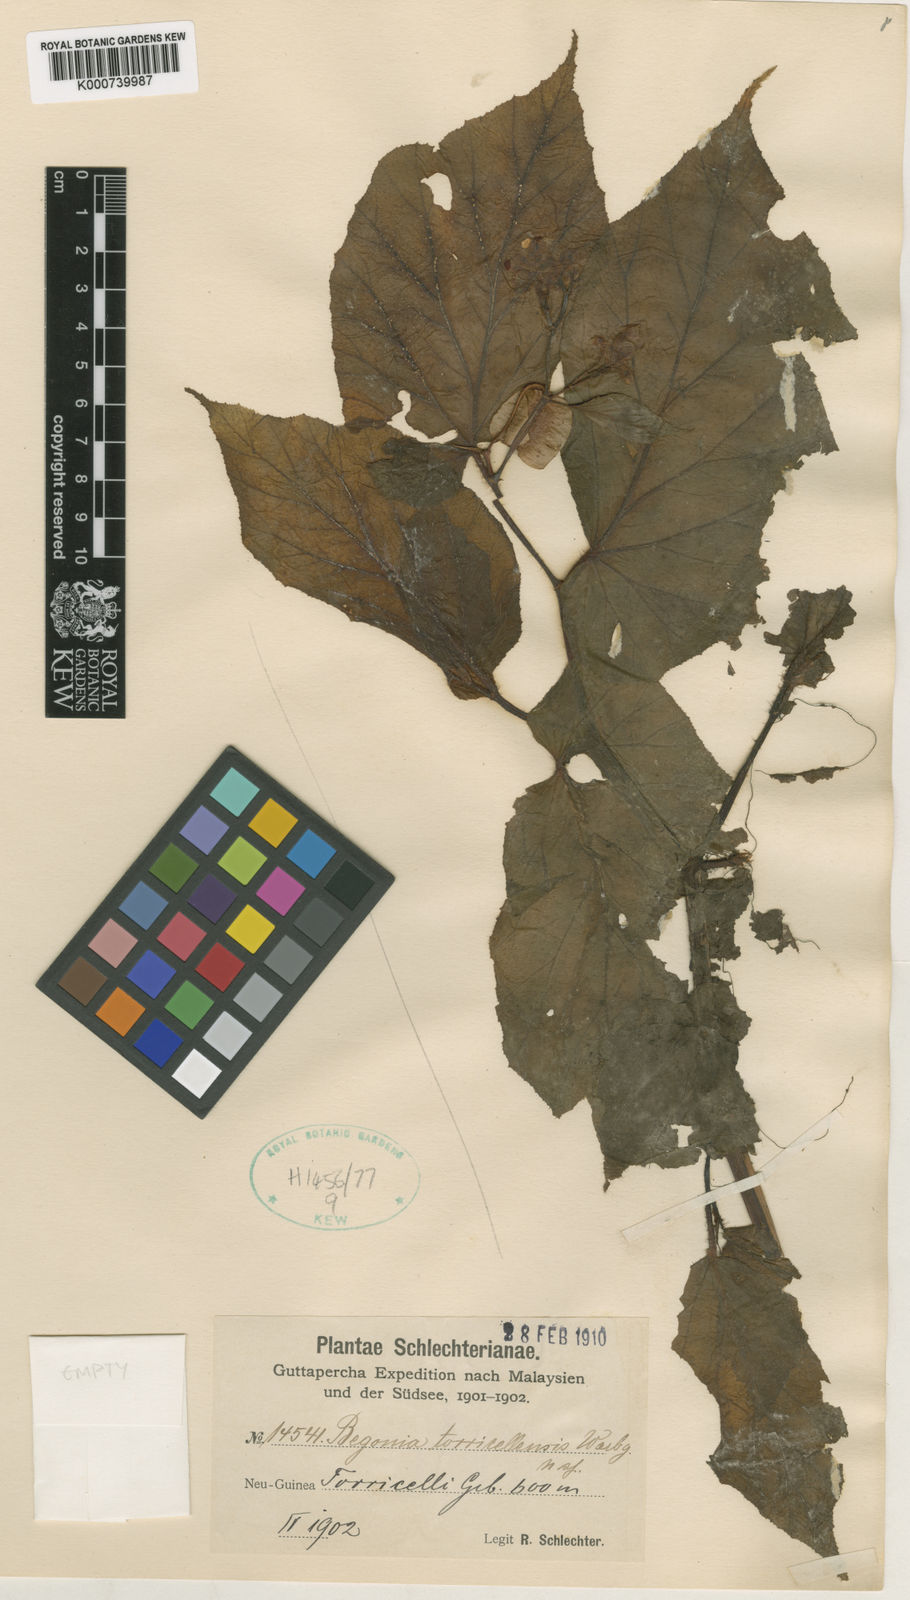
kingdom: Plantae
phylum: Tracheophyta
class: Magnoliopsida
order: Cucurbitales
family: Begoniaceae
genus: Begonia
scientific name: Begonia torricellensis
